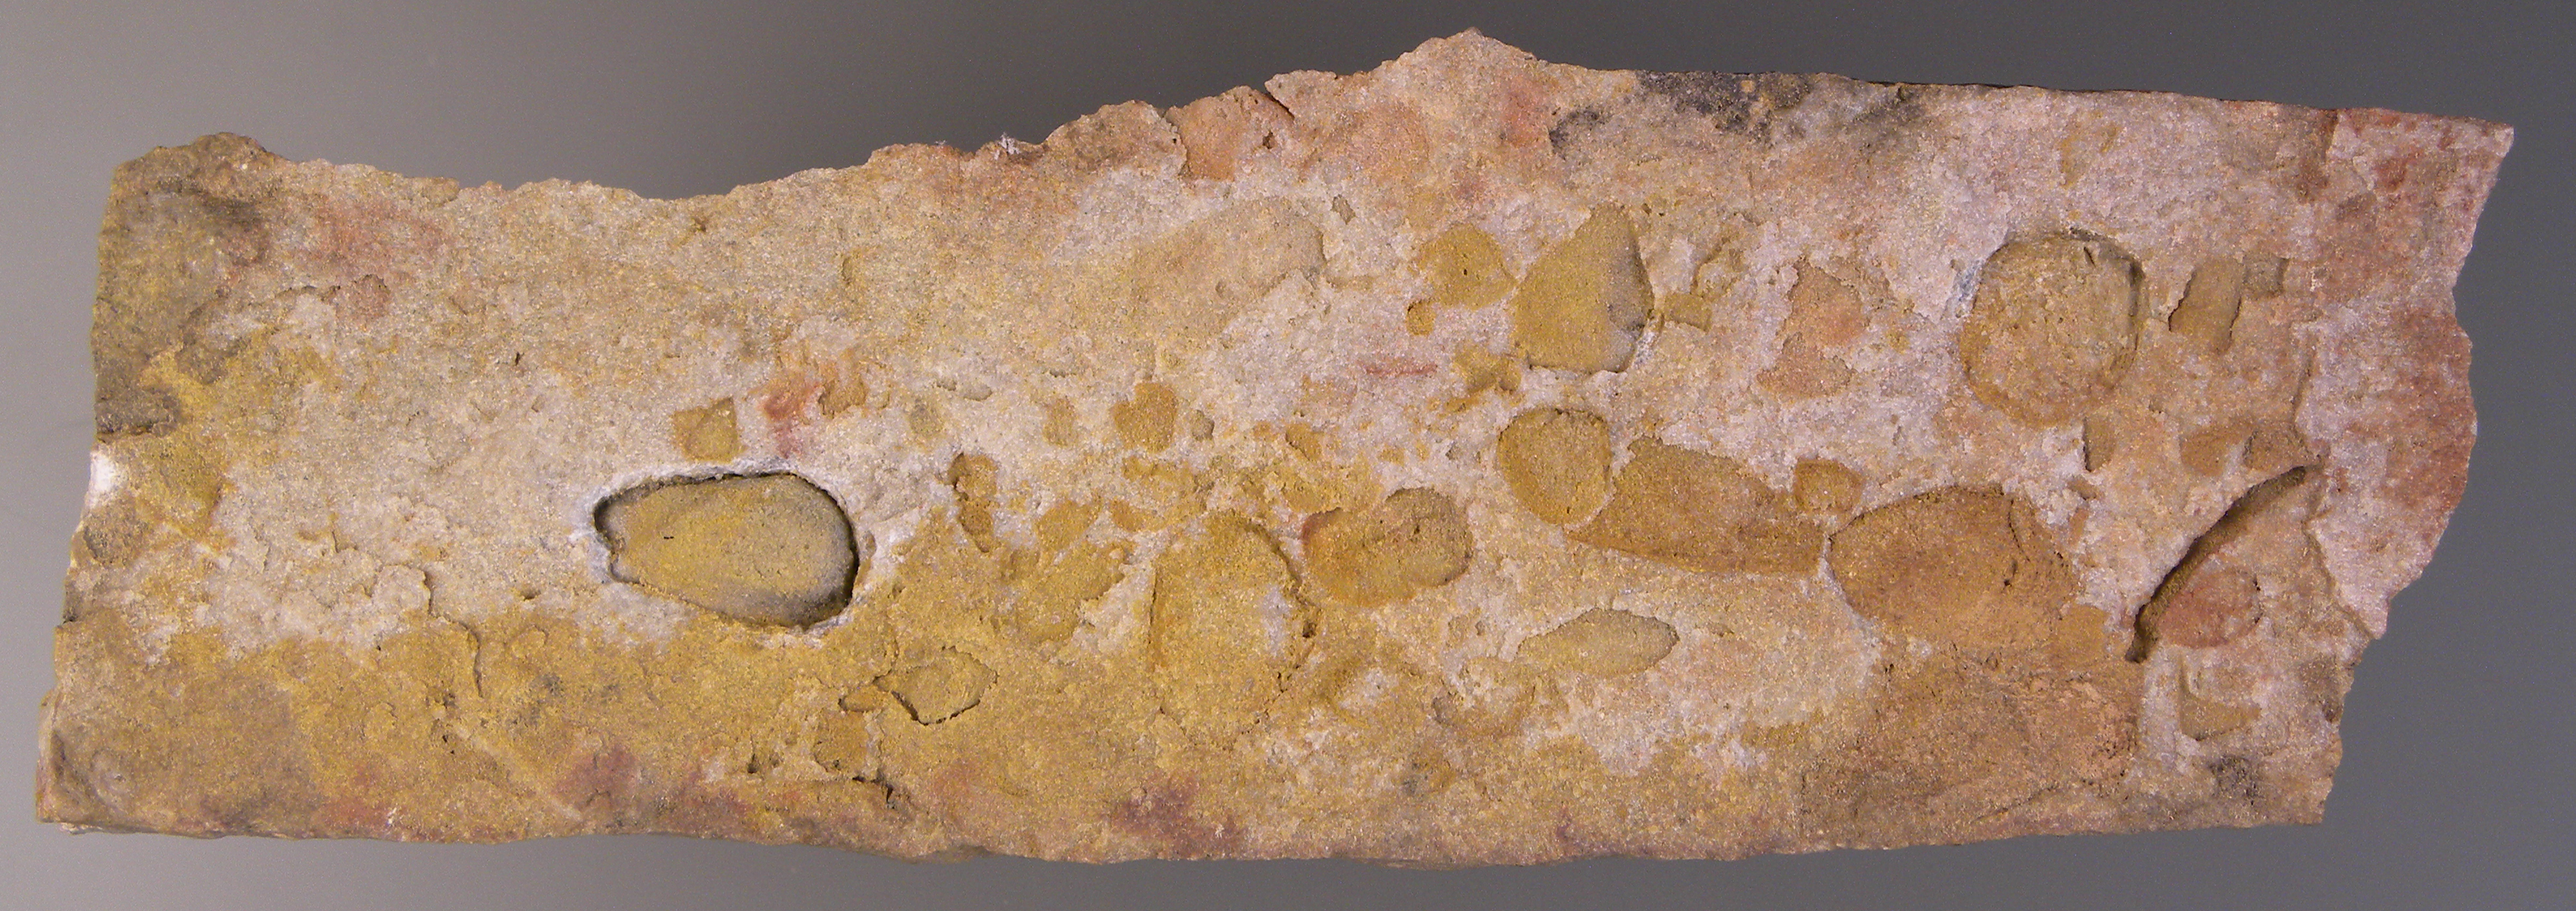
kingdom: Animalia
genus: Koenenia
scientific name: Koenenia
